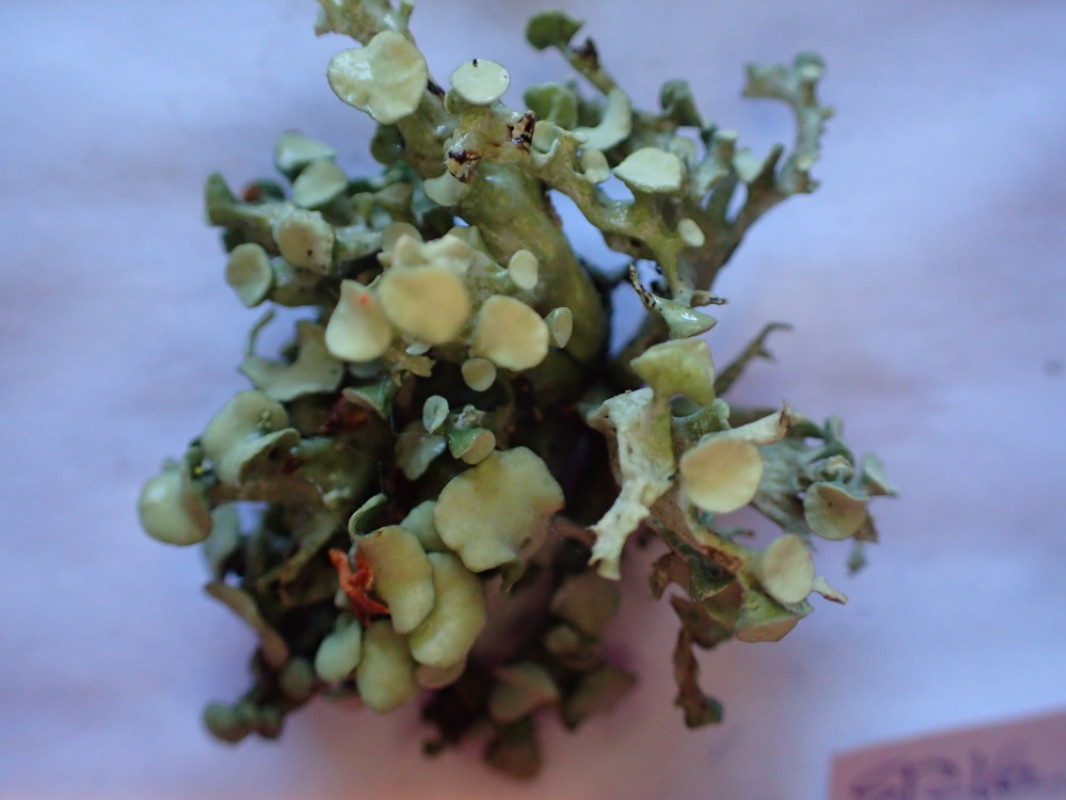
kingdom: Fungi
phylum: Ascomycota
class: Lecanoromycetes
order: Lecanorales
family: Ramalinaceae
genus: Ramalina
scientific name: Ramalina fastigiata
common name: tue-grenlav
